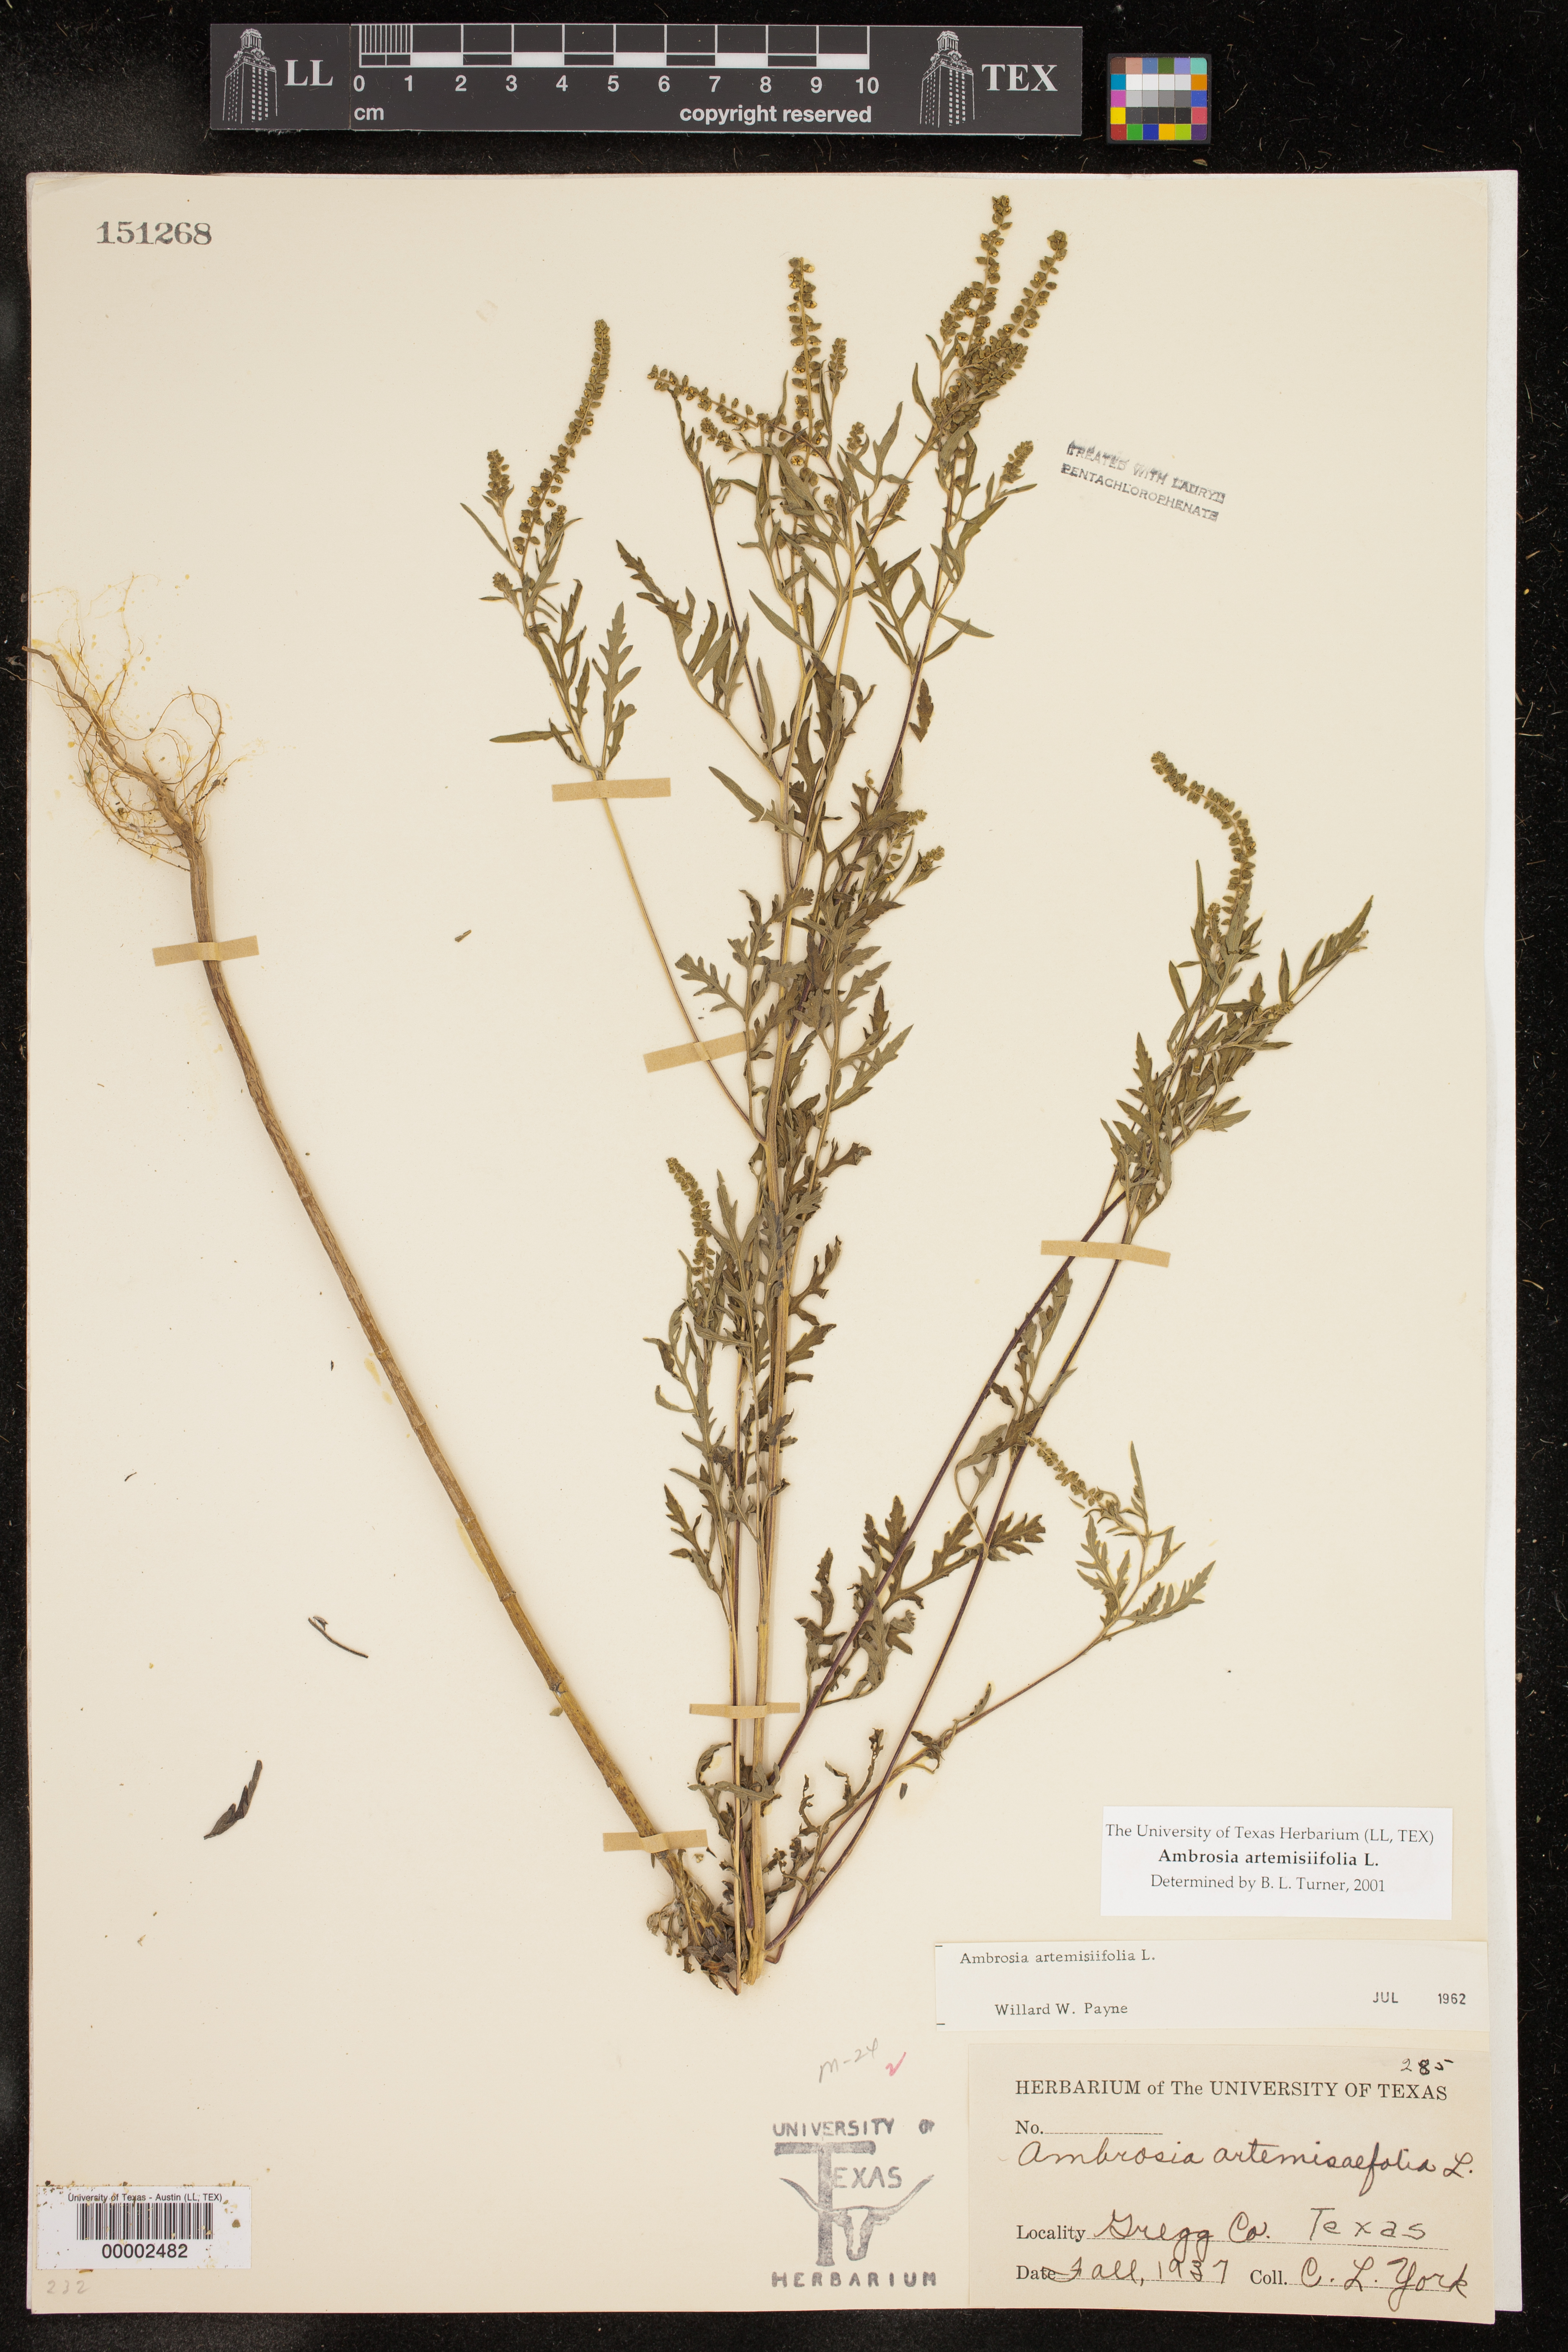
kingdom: Plantae
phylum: Tracheophyta
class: Magnoliopsida
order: Asterales
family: Asteraceae
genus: Ambrosia
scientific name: Ambrosia artemisiifolia
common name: Annual ragweed
